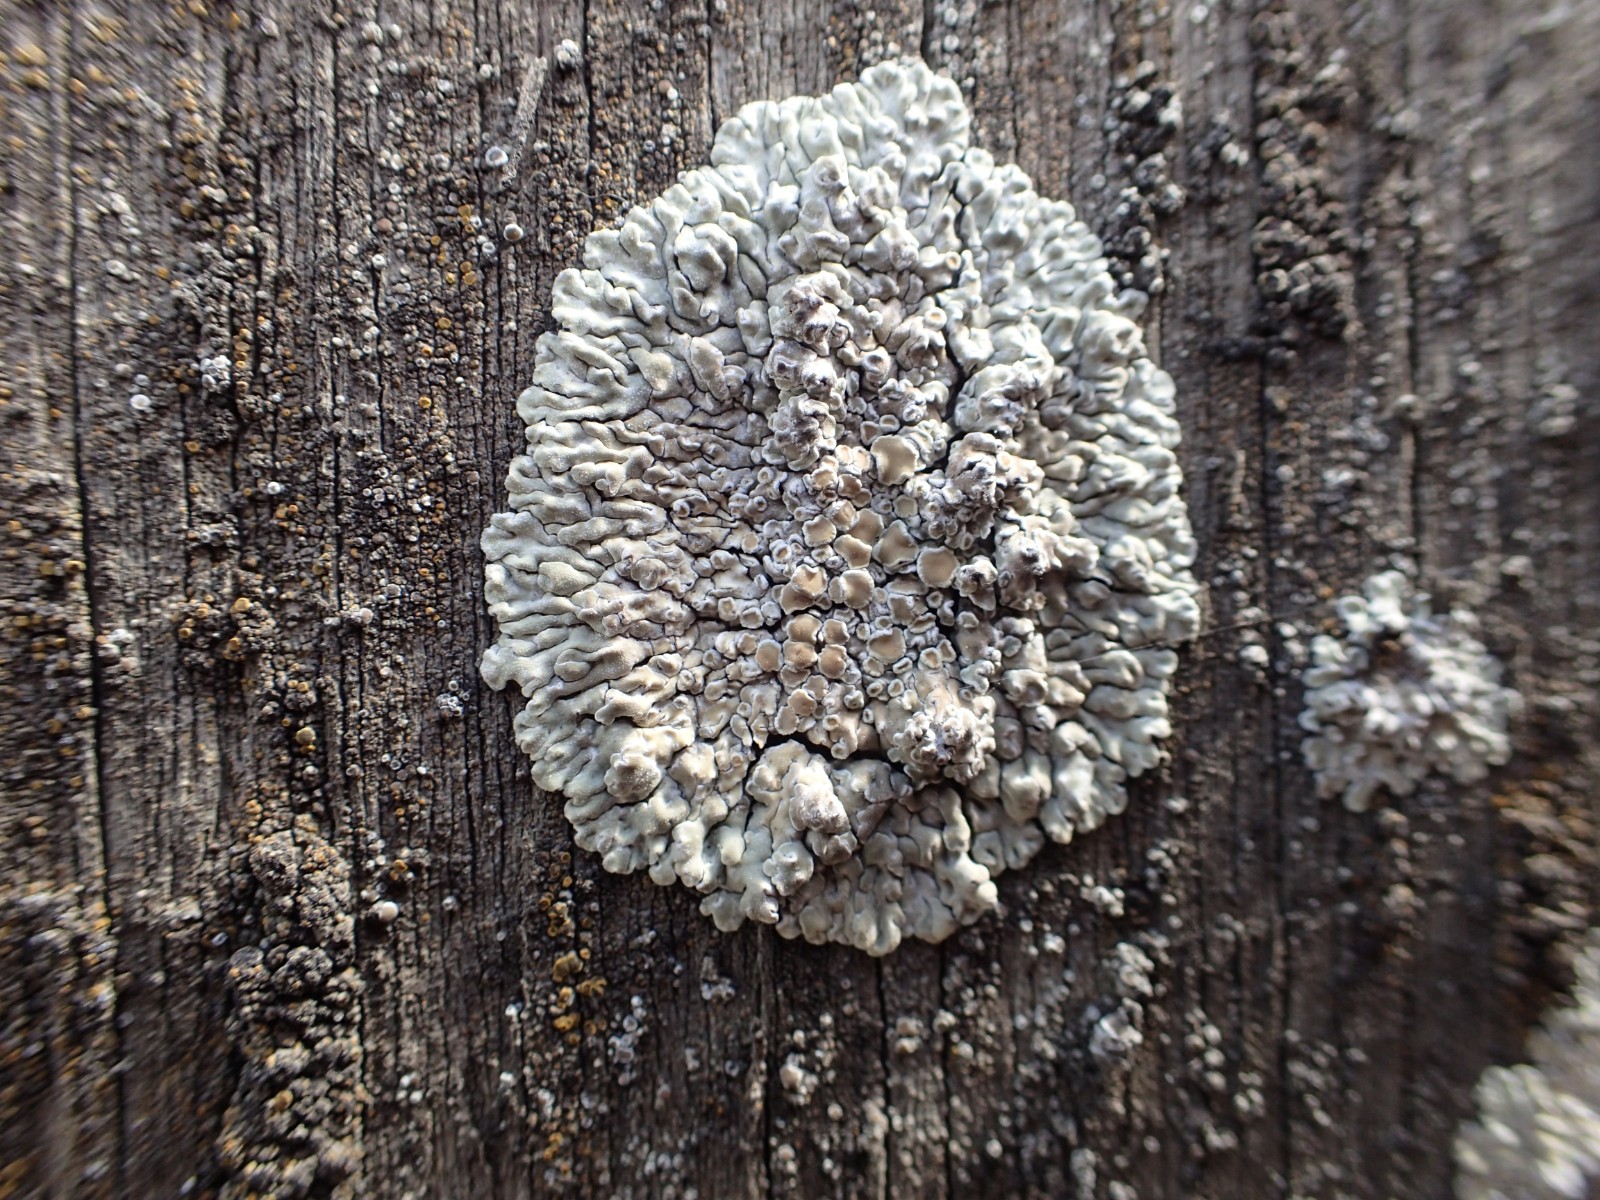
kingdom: Fungi
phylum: Ascomycota
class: Lecanoromycetes
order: Lecanorales
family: Lecanoraceae
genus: Protoparmeliopsis
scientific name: Protoparmeliopsis muralis
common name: randfliget kantskivelav
